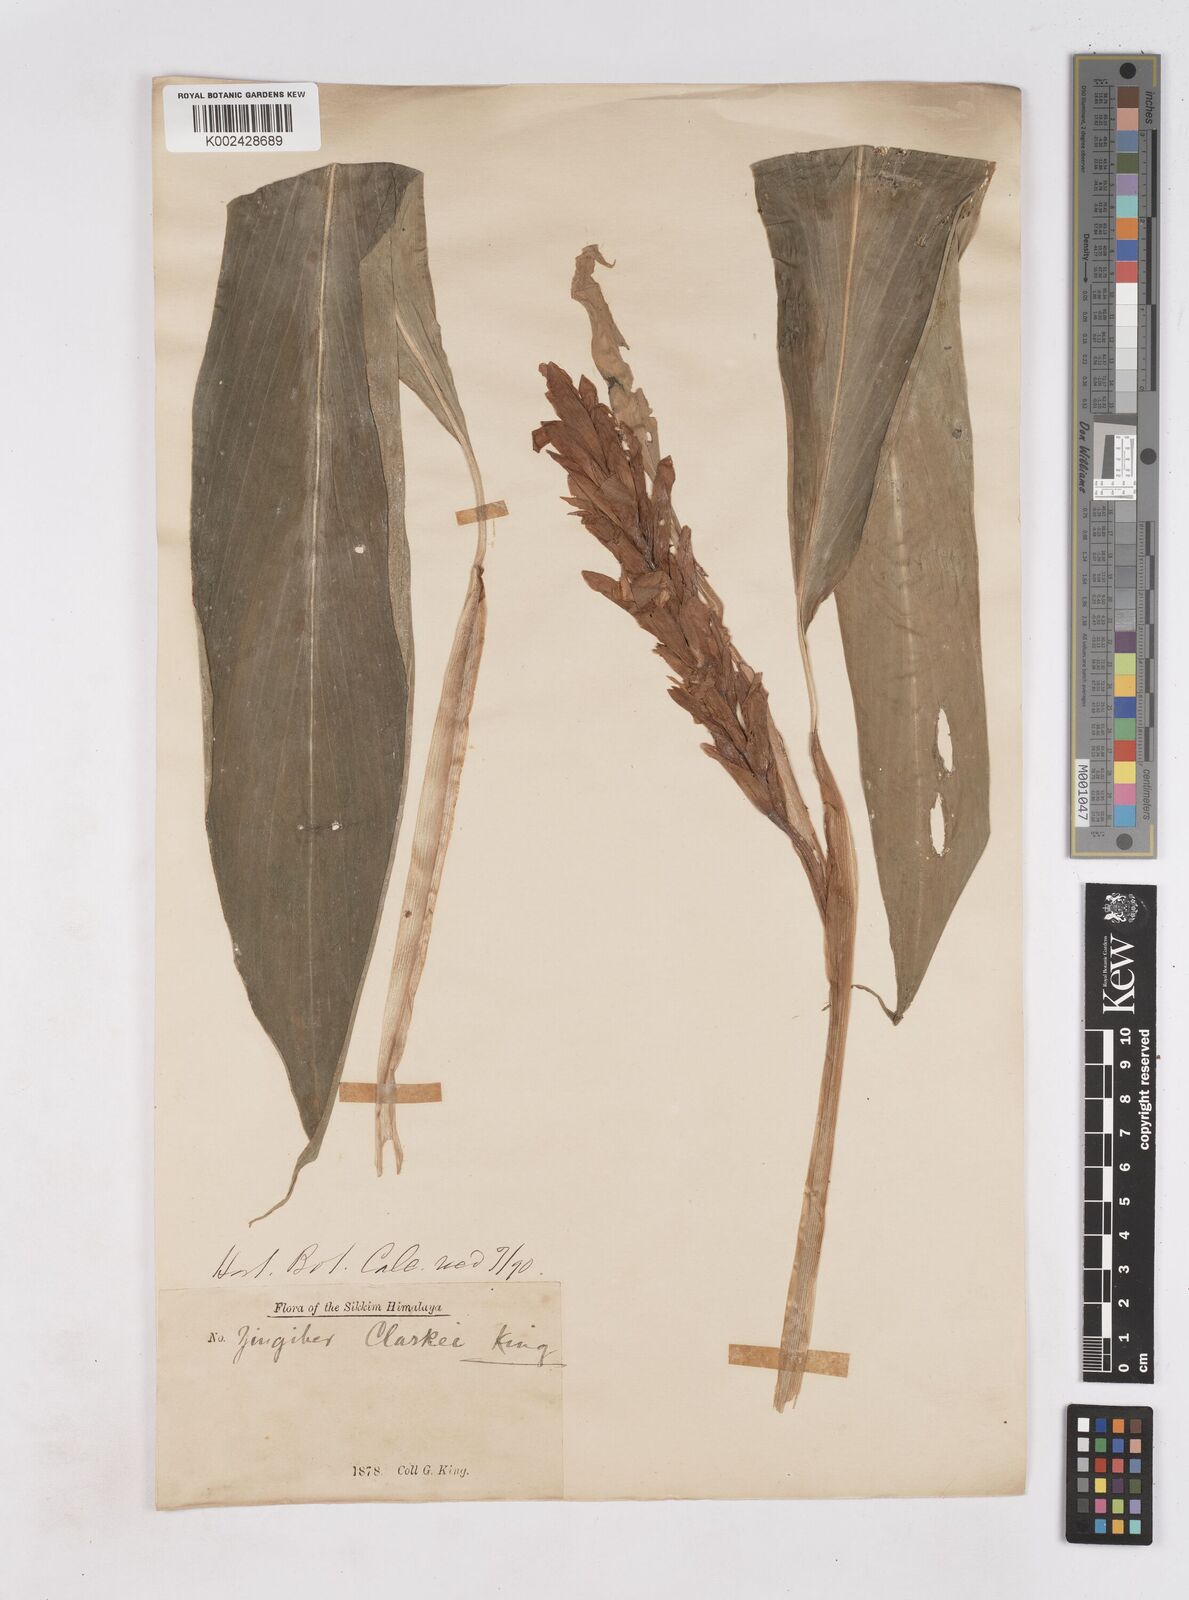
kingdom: Plantae
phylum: Tracheophyta
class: Liliopsida
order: Zingiberales
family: Zingiberaceae
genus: Zingiber
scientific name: Zingiber clarkei
